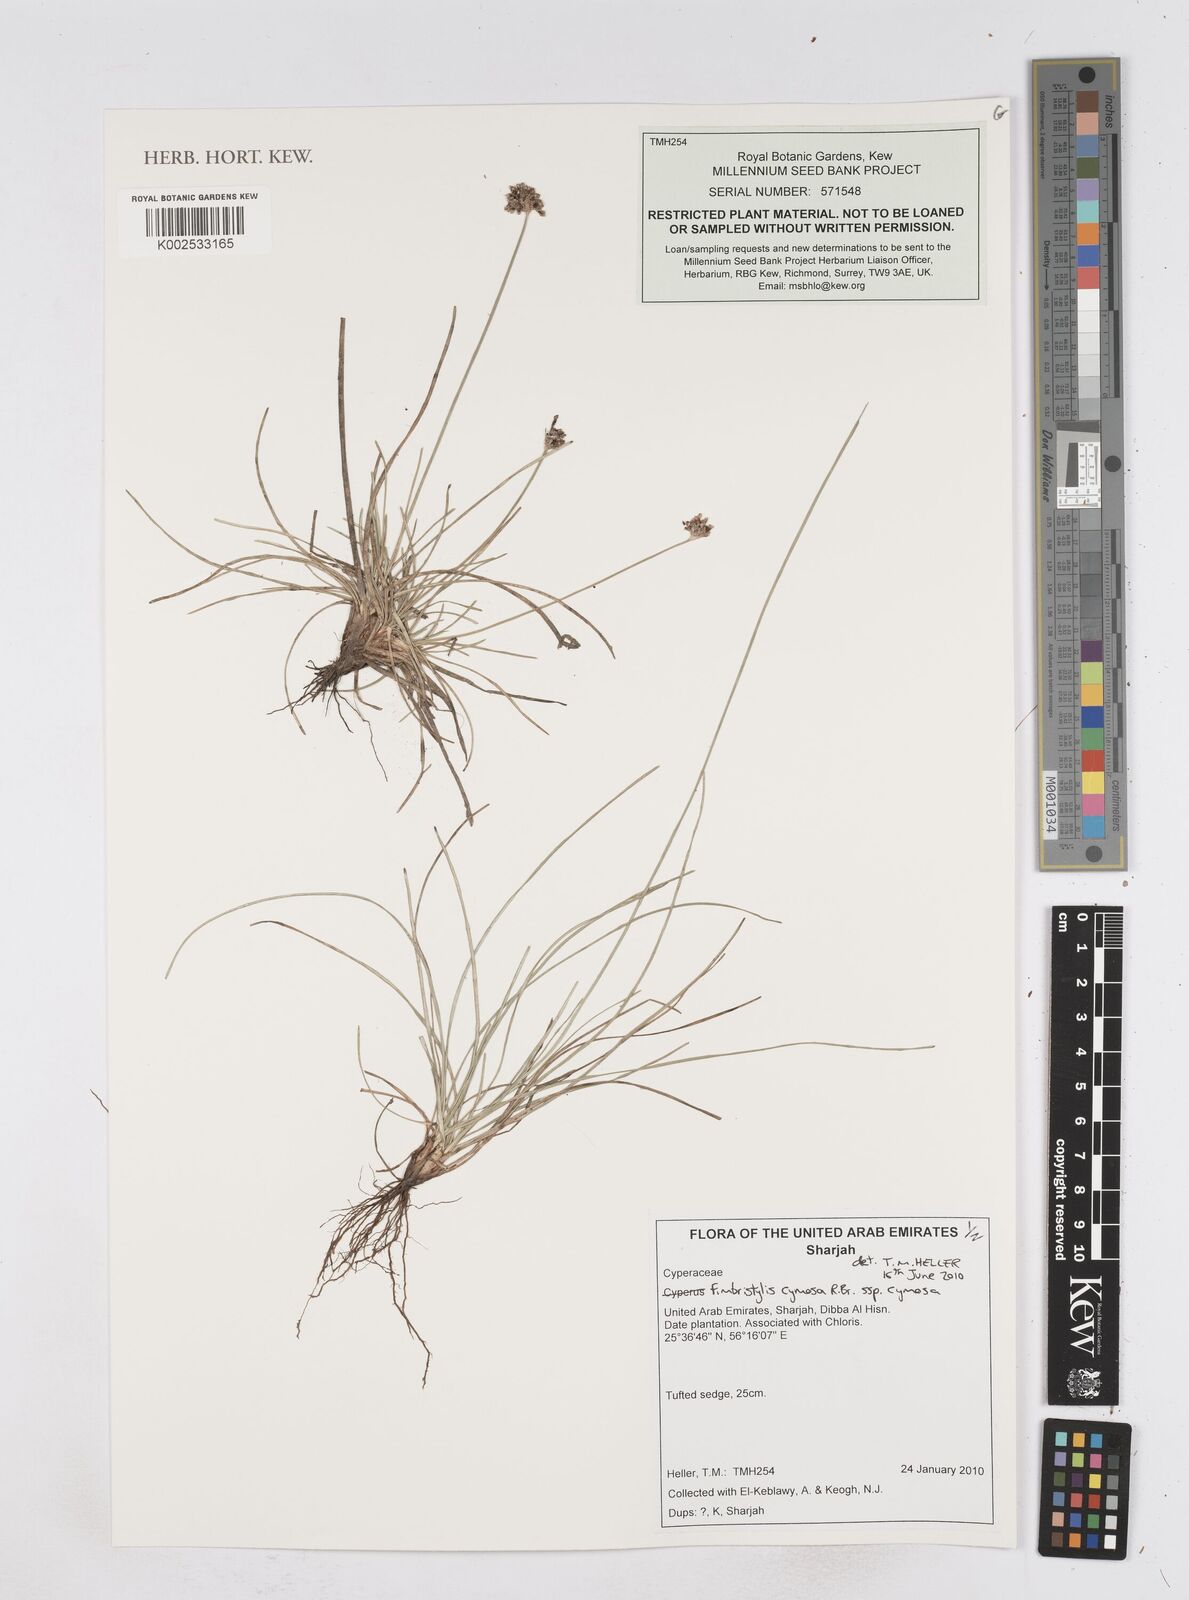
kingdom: Plantae
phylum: Tracheophyta
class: Liliopsida
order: Poales
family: Cyperaceae
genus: Fimbristylis
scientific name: Fimbristylis cymosa
